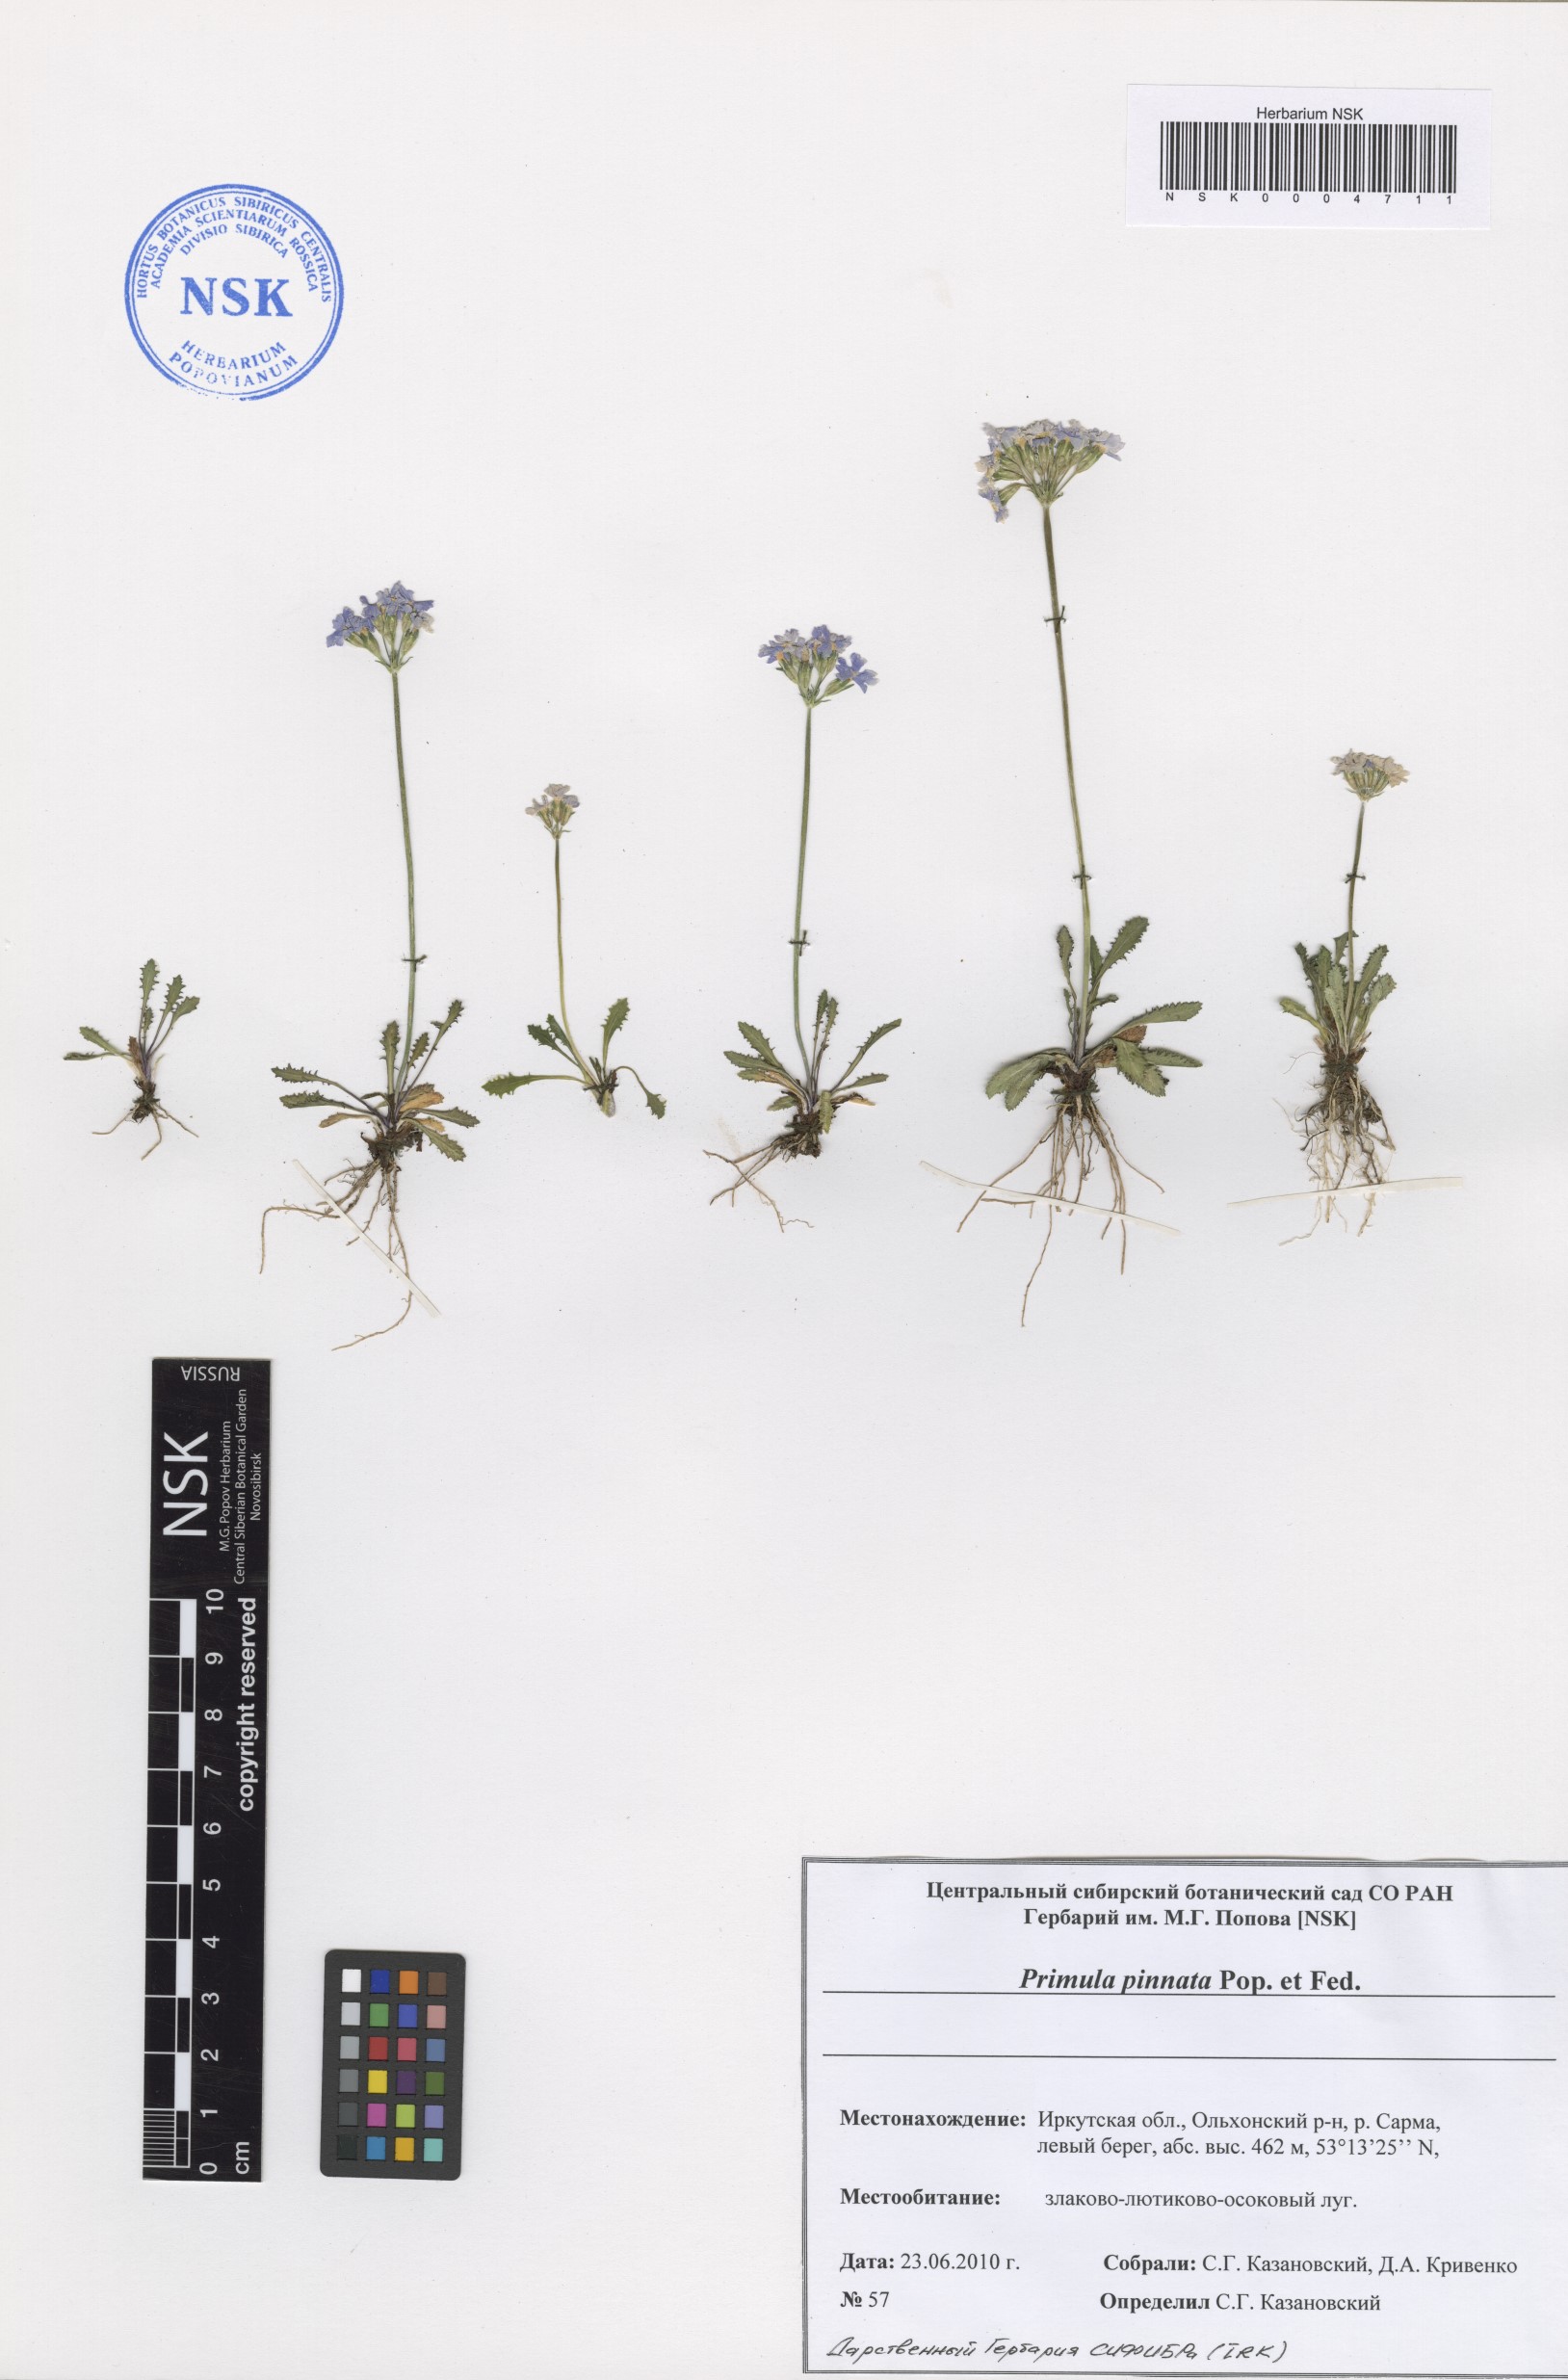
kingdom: Plantae
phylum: Tracheophyta
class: Magnoliopsida
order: Ericales
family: Primulaceae
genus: Primula
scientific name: Primula pinnata
